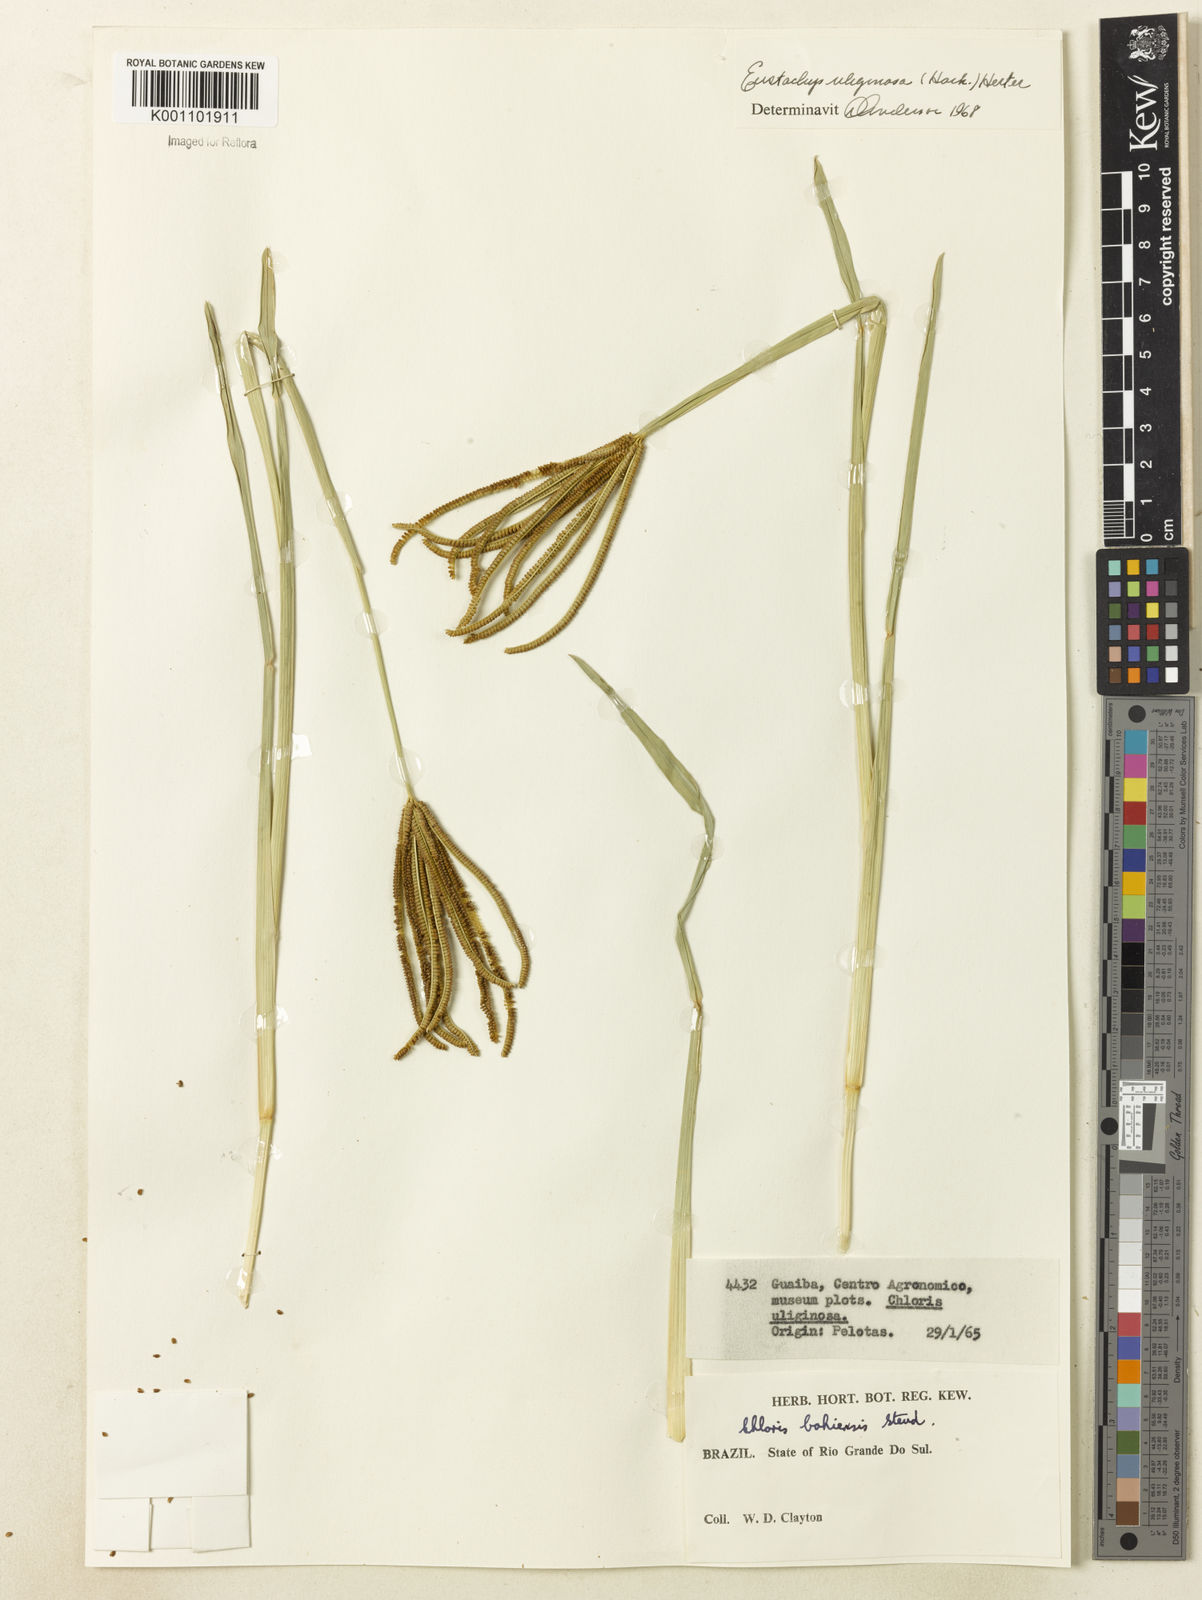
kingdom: Plantae
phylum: Tracheophyta
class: Liliopsida
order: Poales
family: Poaceae
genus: Eustachys
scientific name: Eustachys uliginosa
